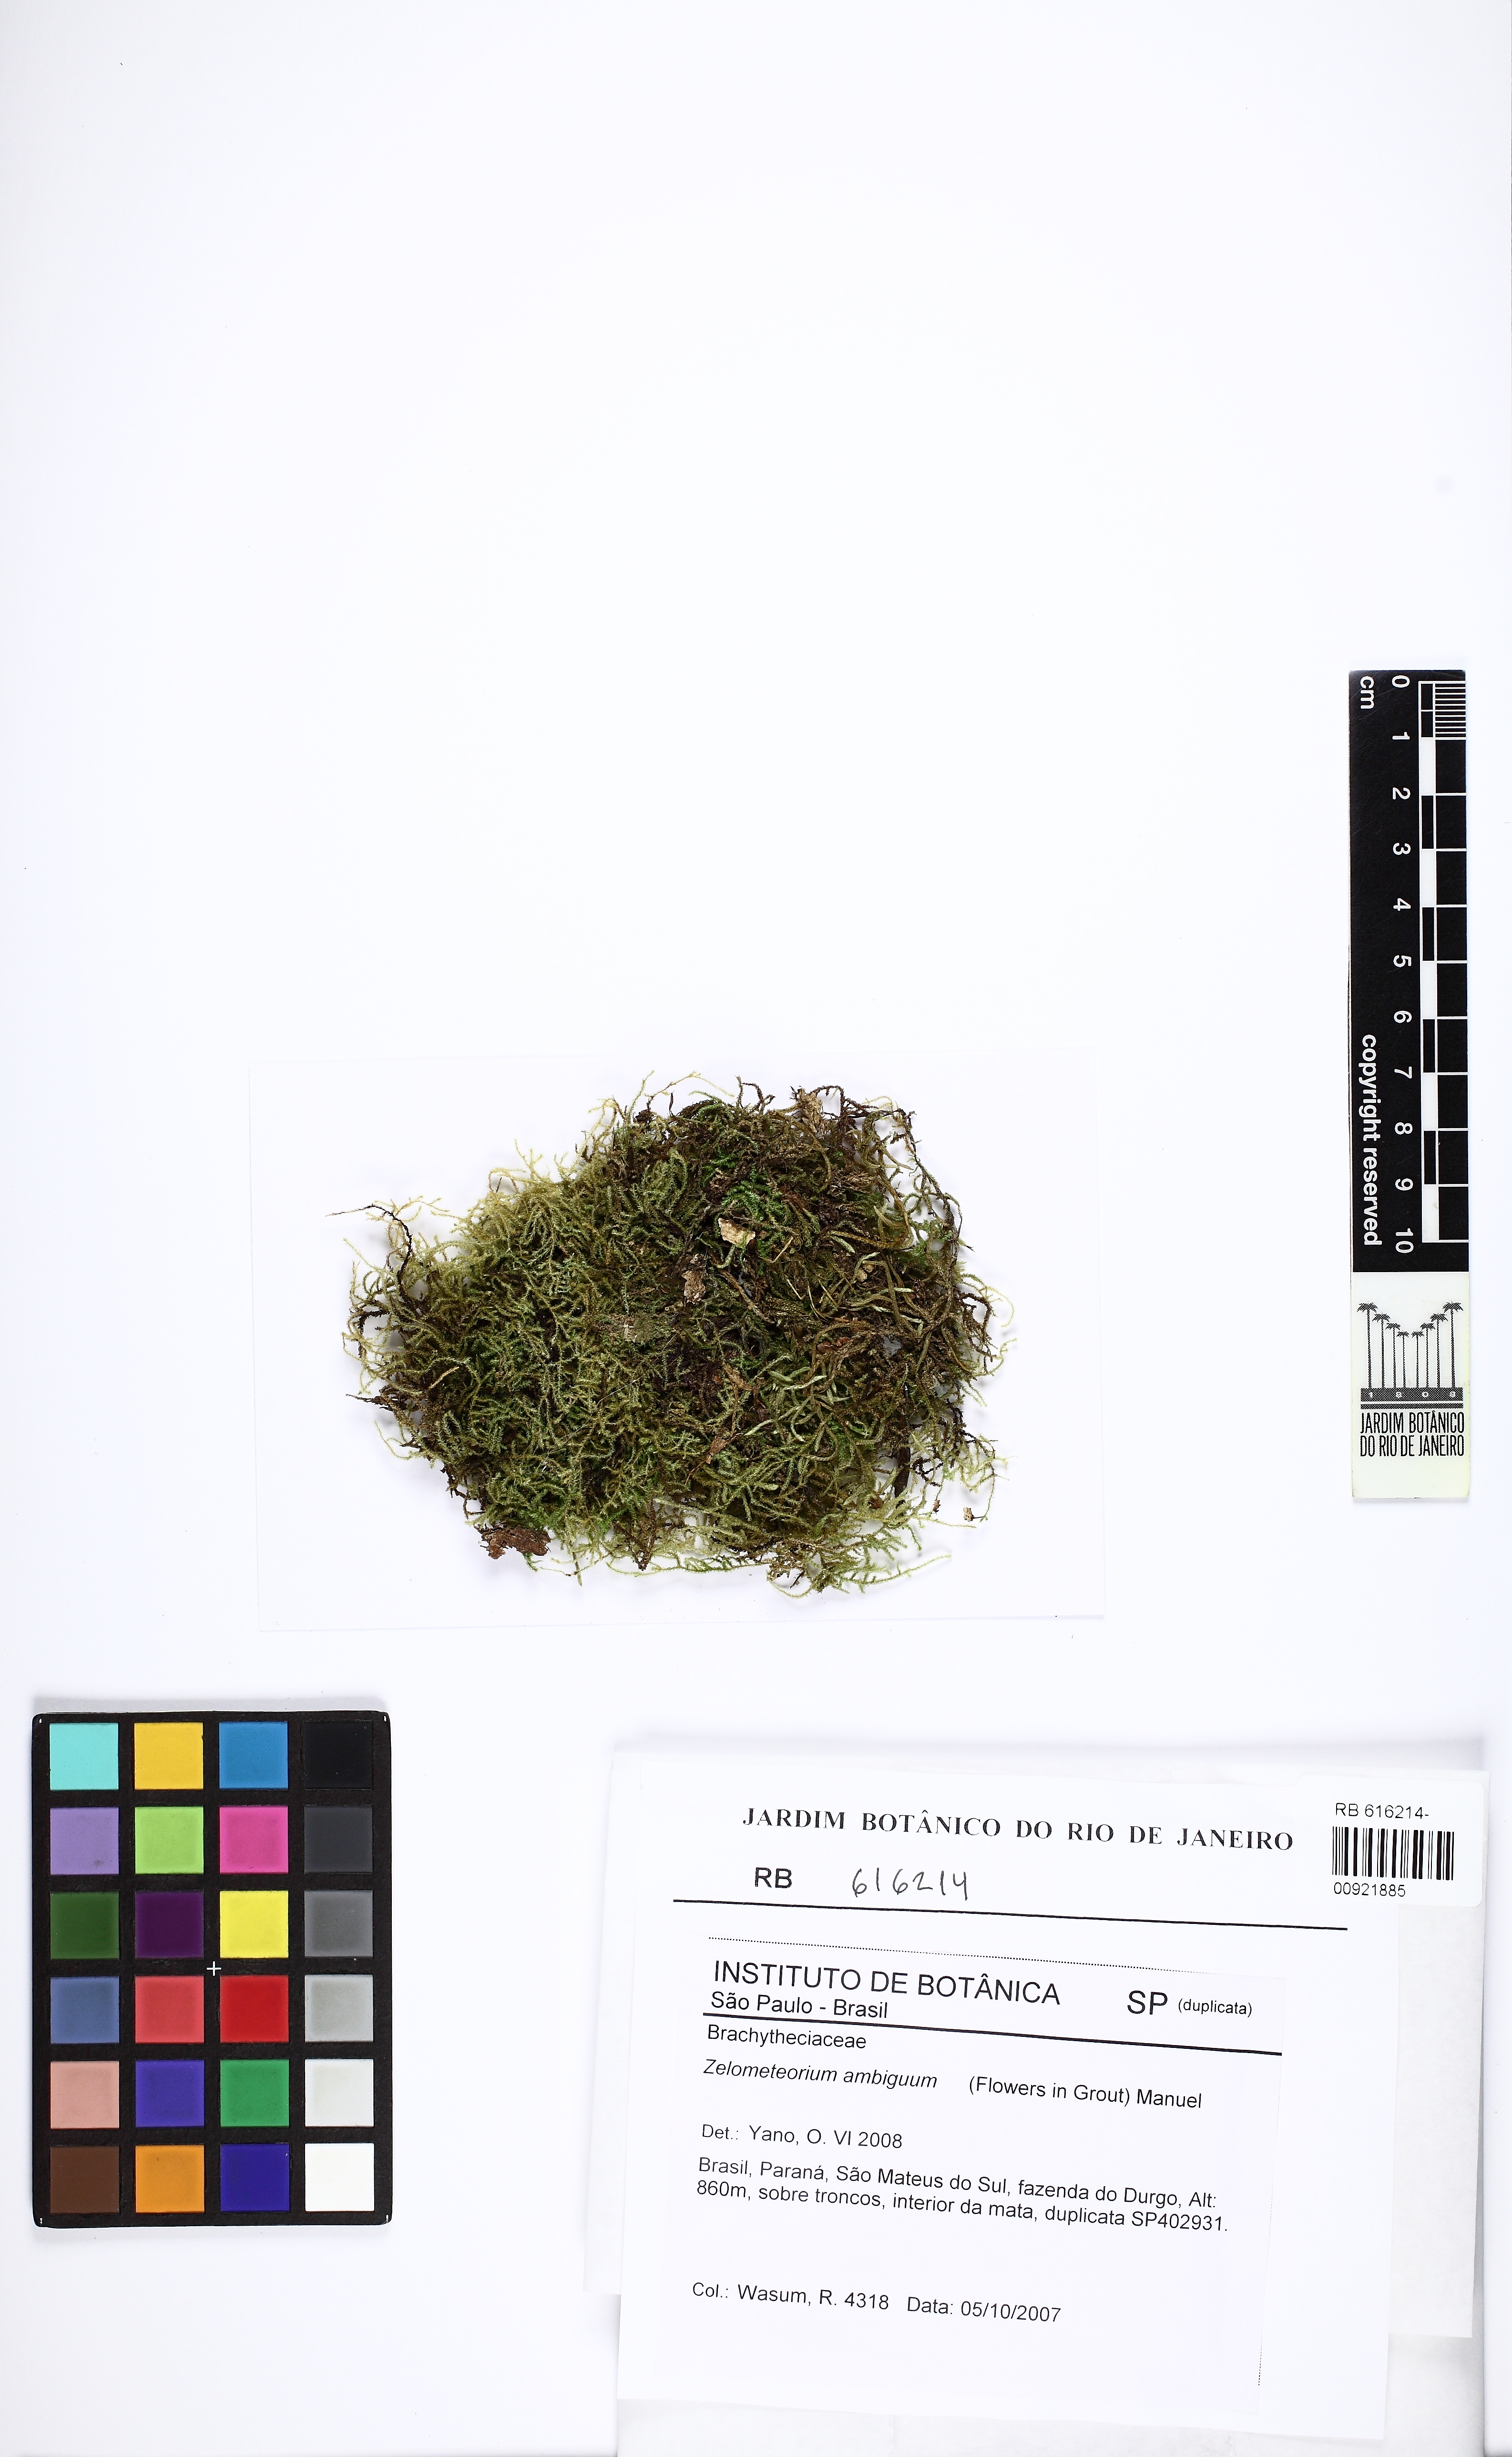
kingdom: Plantae
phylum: Bryophyta
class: Bryopsida
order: Hypnales
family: Brachytheciaceae
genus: Zelometeorium
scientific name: Zelometeorium ambiguum
